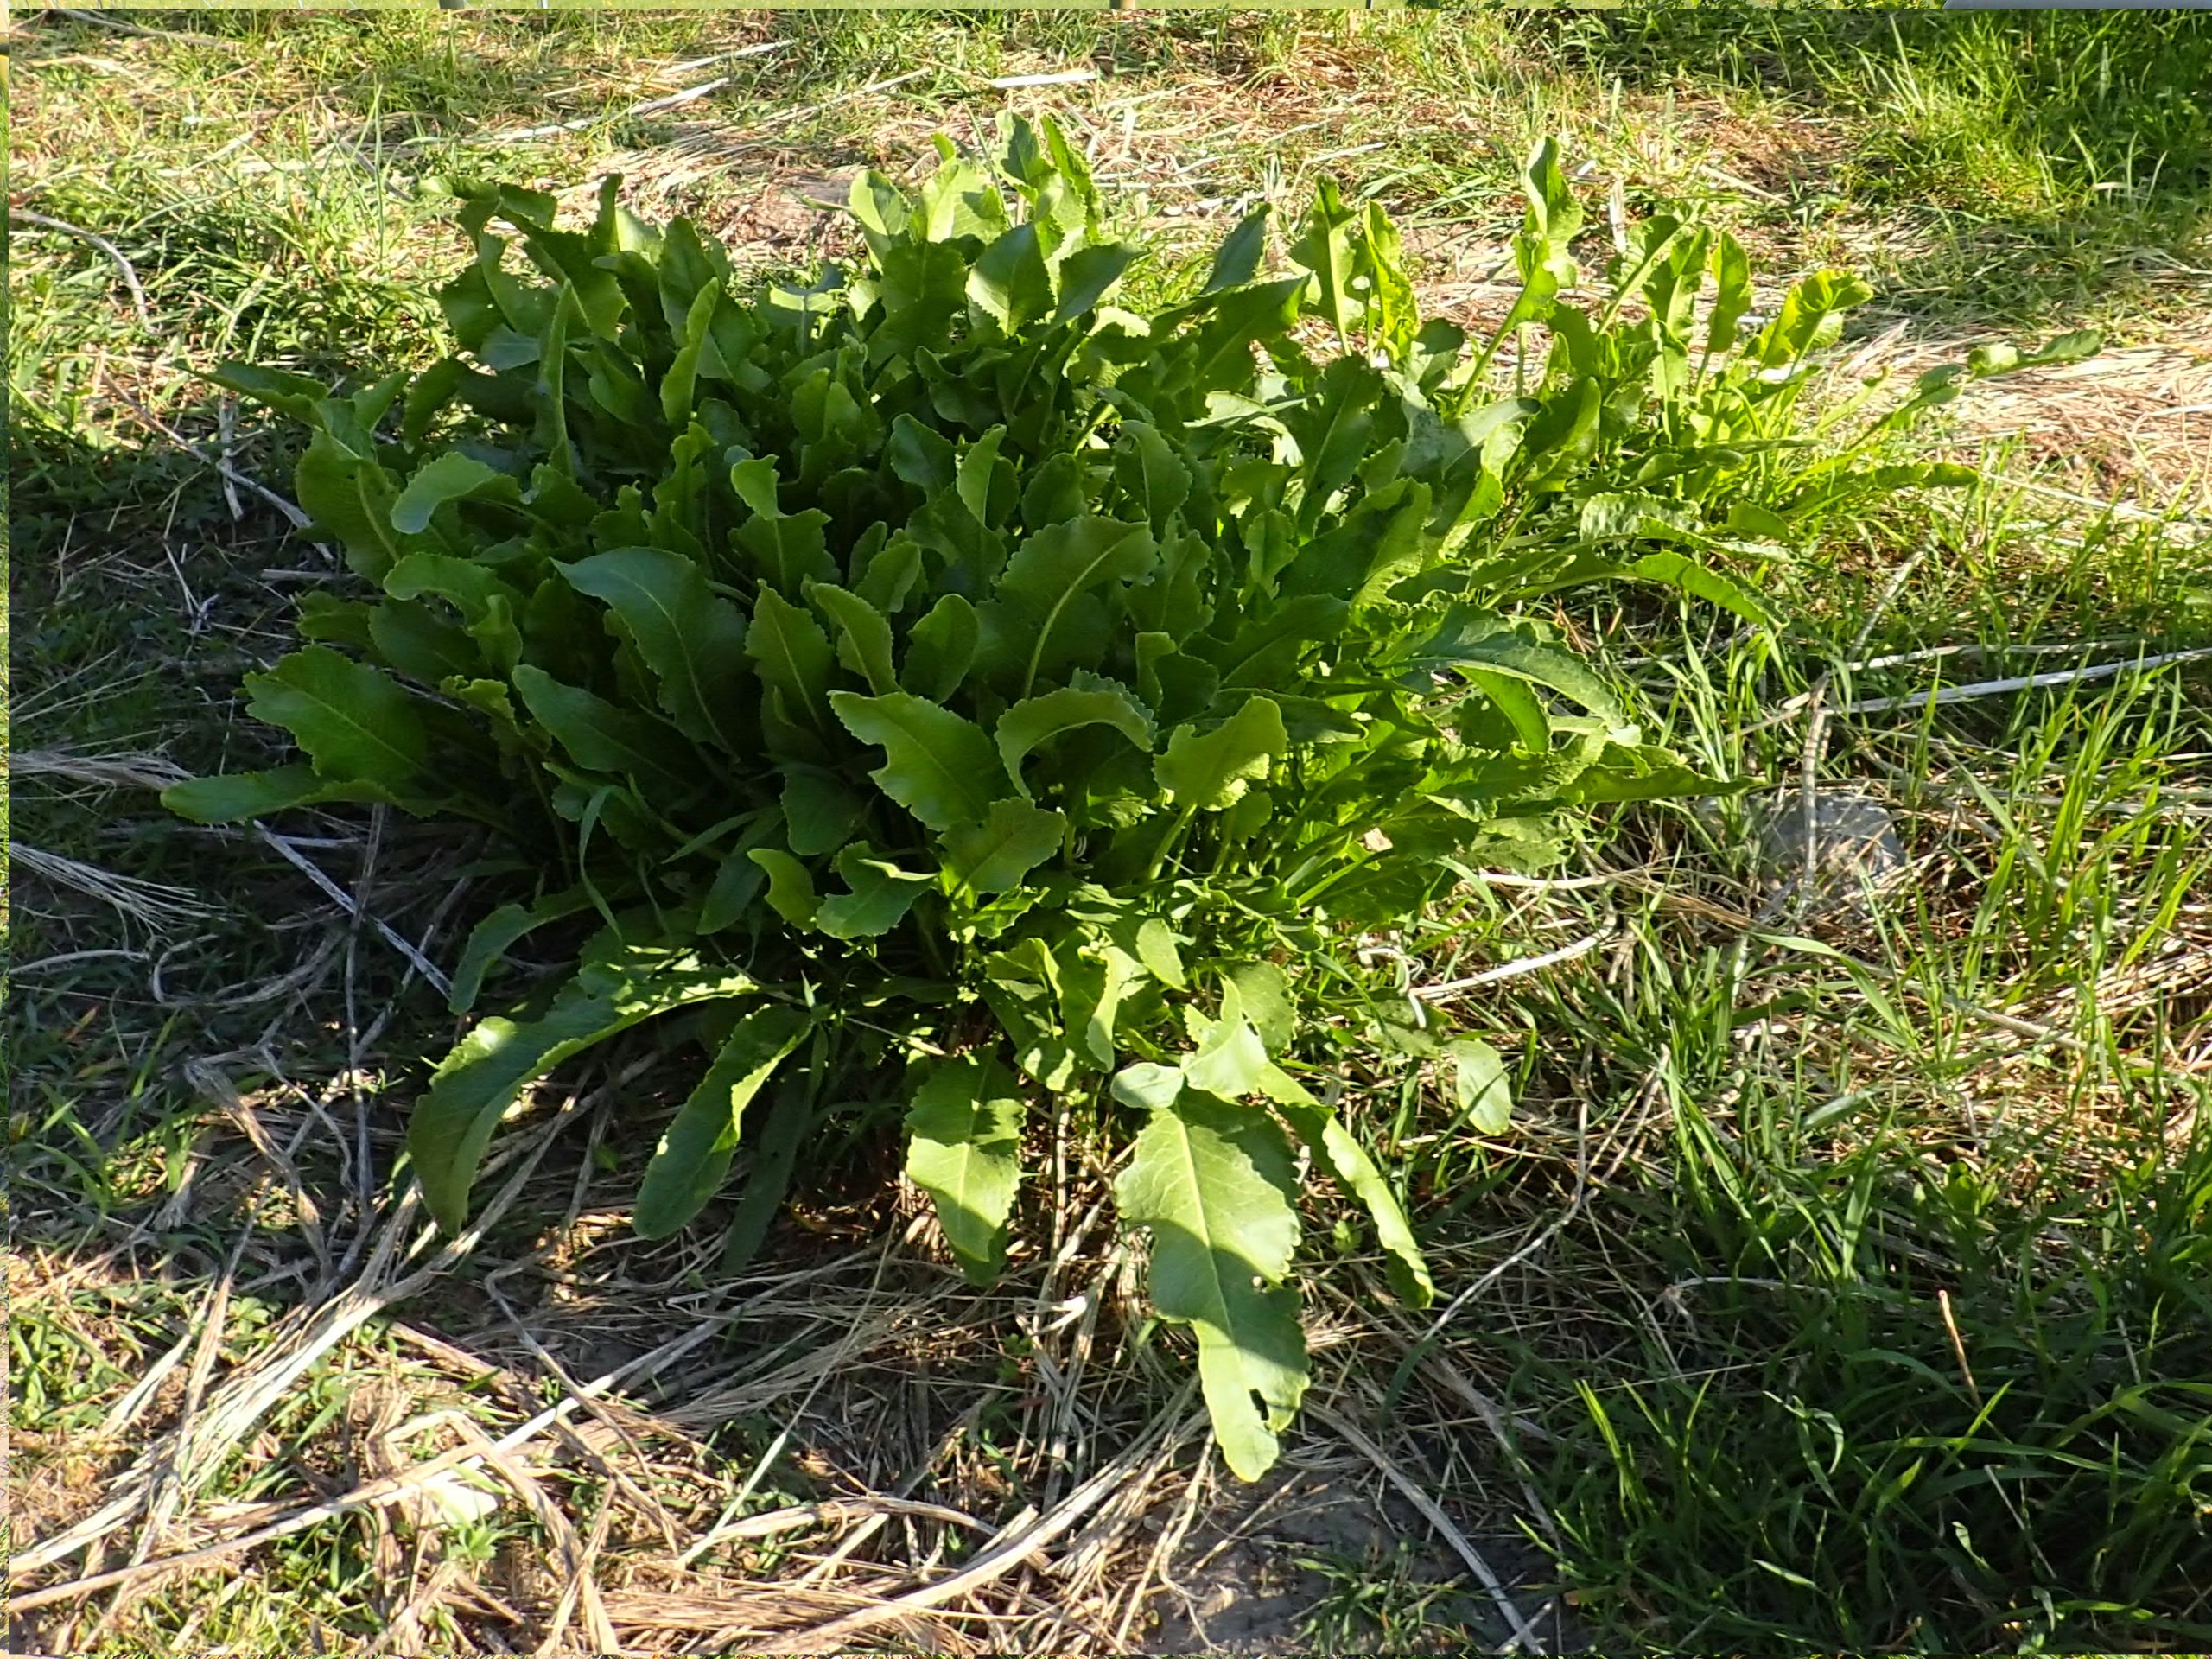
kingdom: Plantae
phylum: Tracheophyta
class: Magnoliopsida
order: Brassicales
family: Brassicaceae
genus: Armoracia
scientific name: Armoracia rusticana
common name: Peberrod
